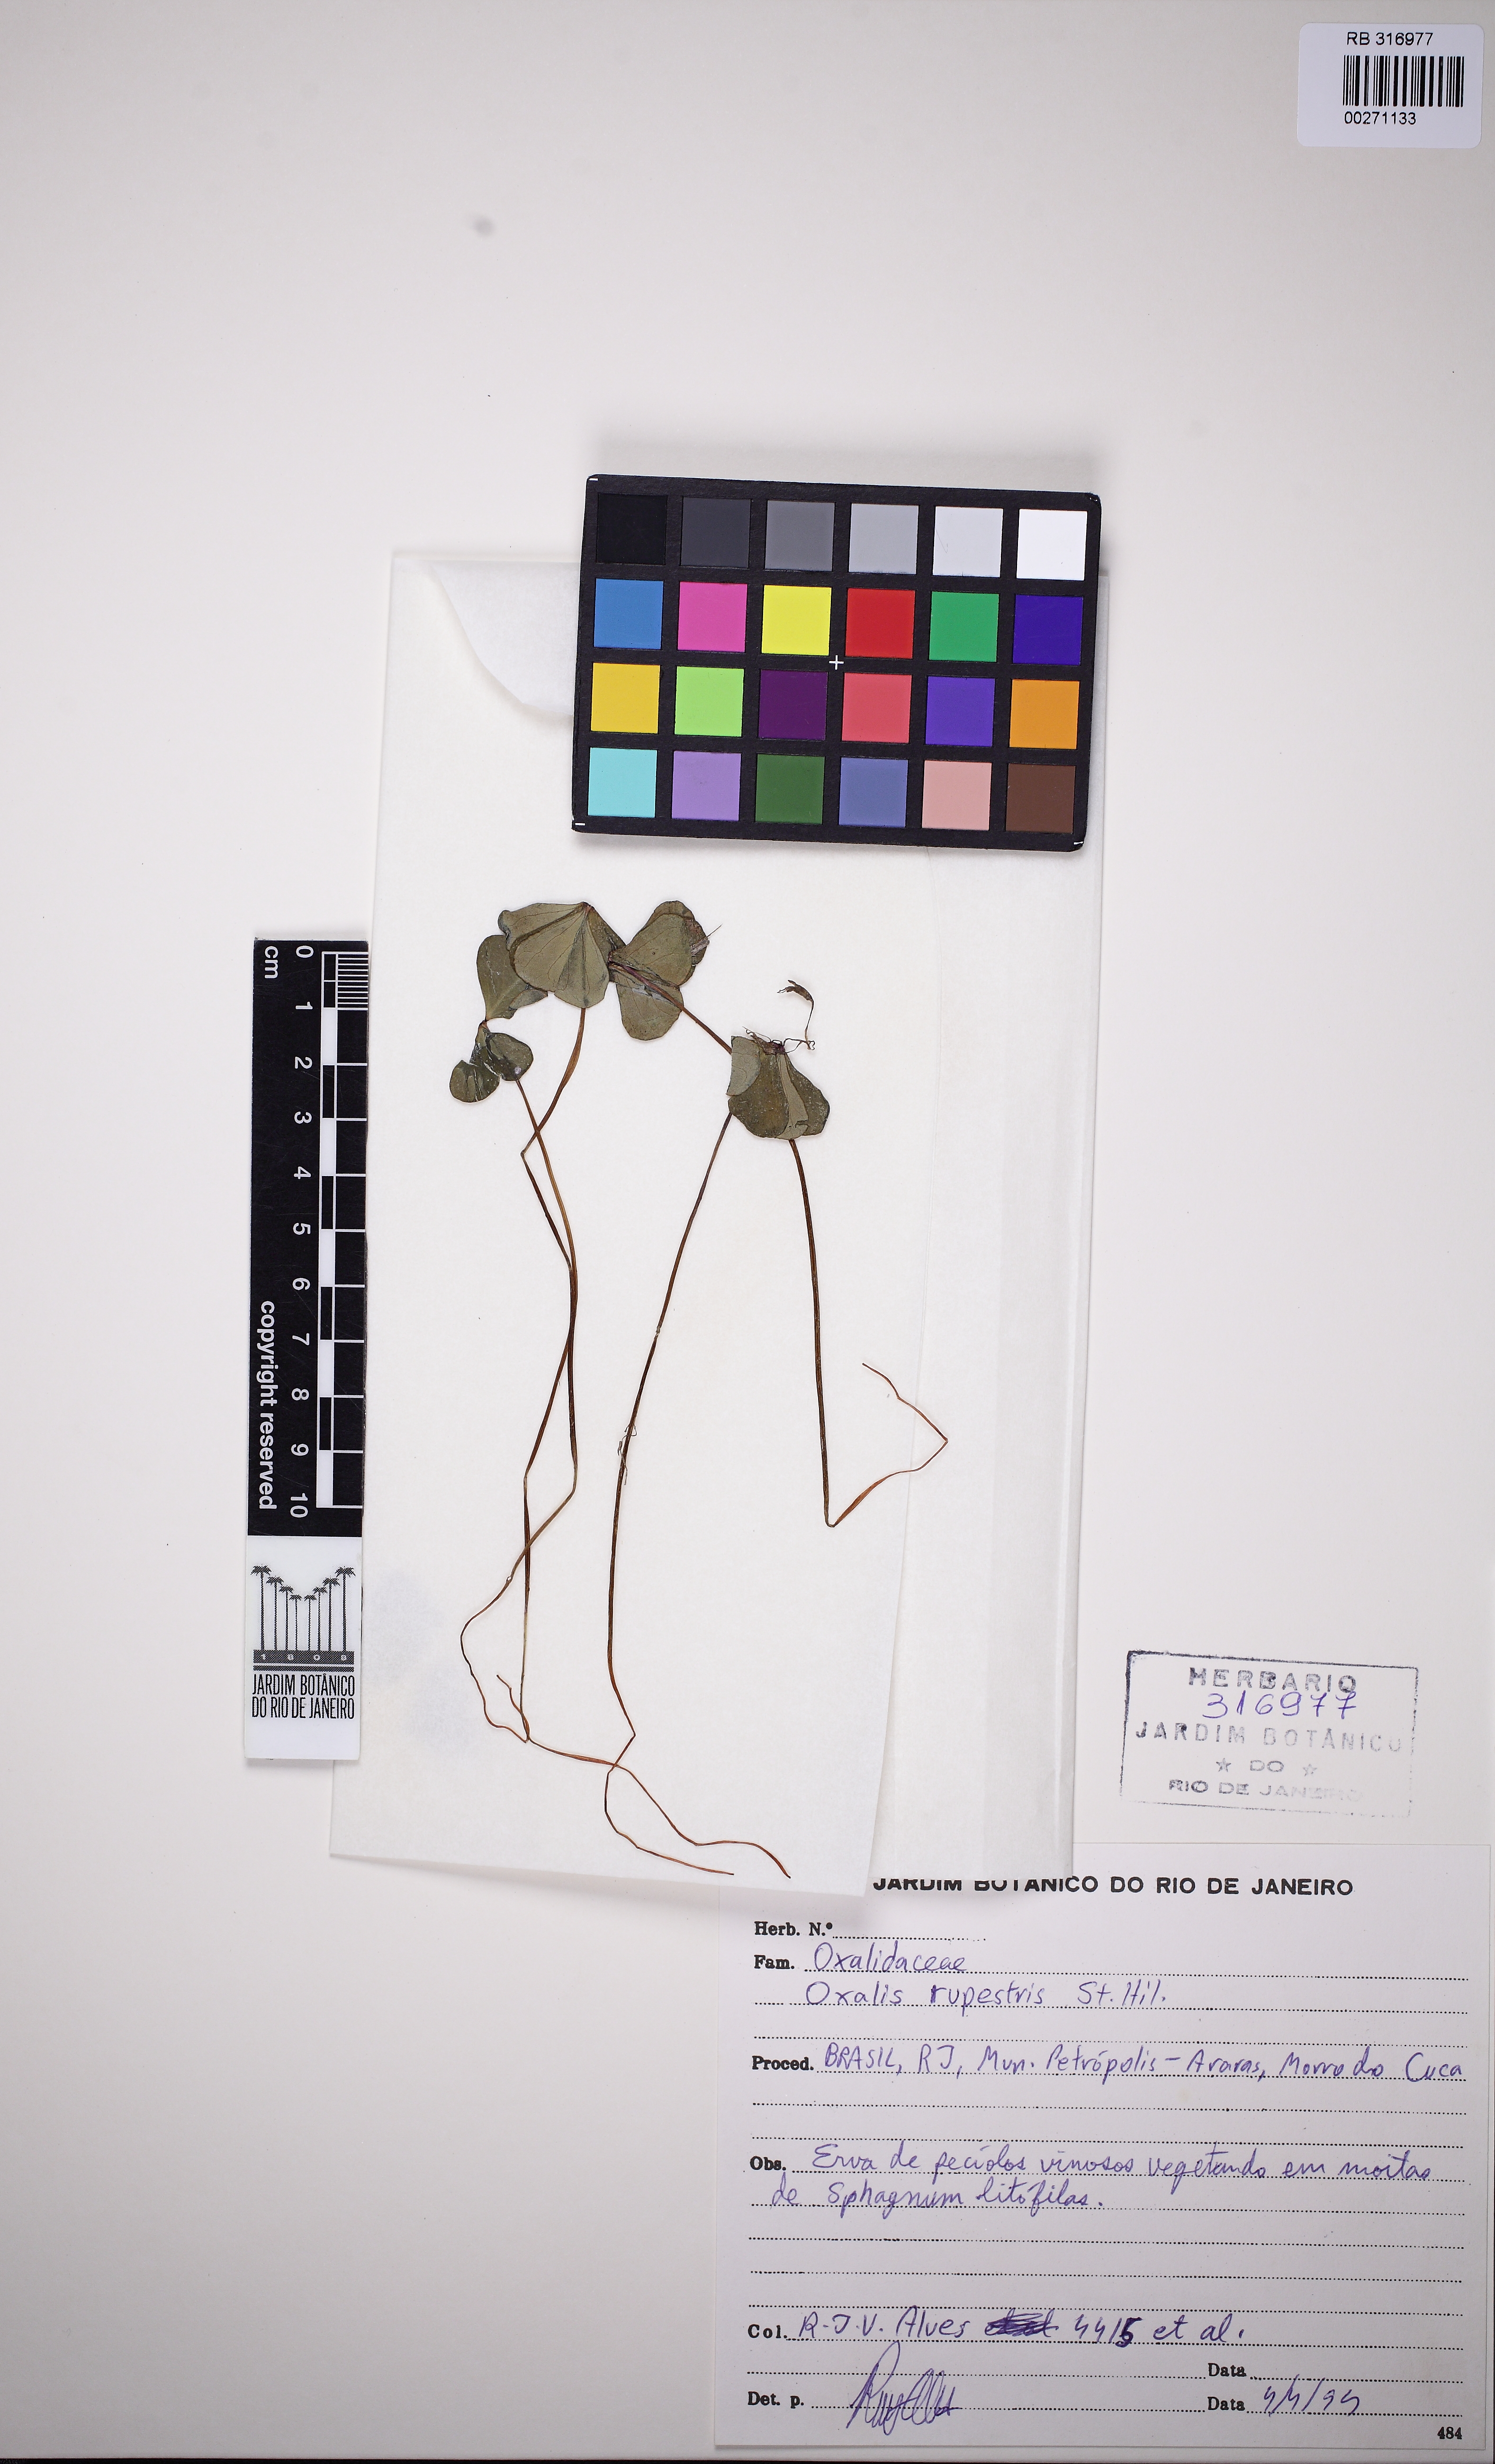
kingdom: Plantae
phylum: Tracheophyta
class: Magnoliopsida
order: Oxalidales
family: Oxalidaceae
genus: Oxalis
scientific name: Oxalis calva
